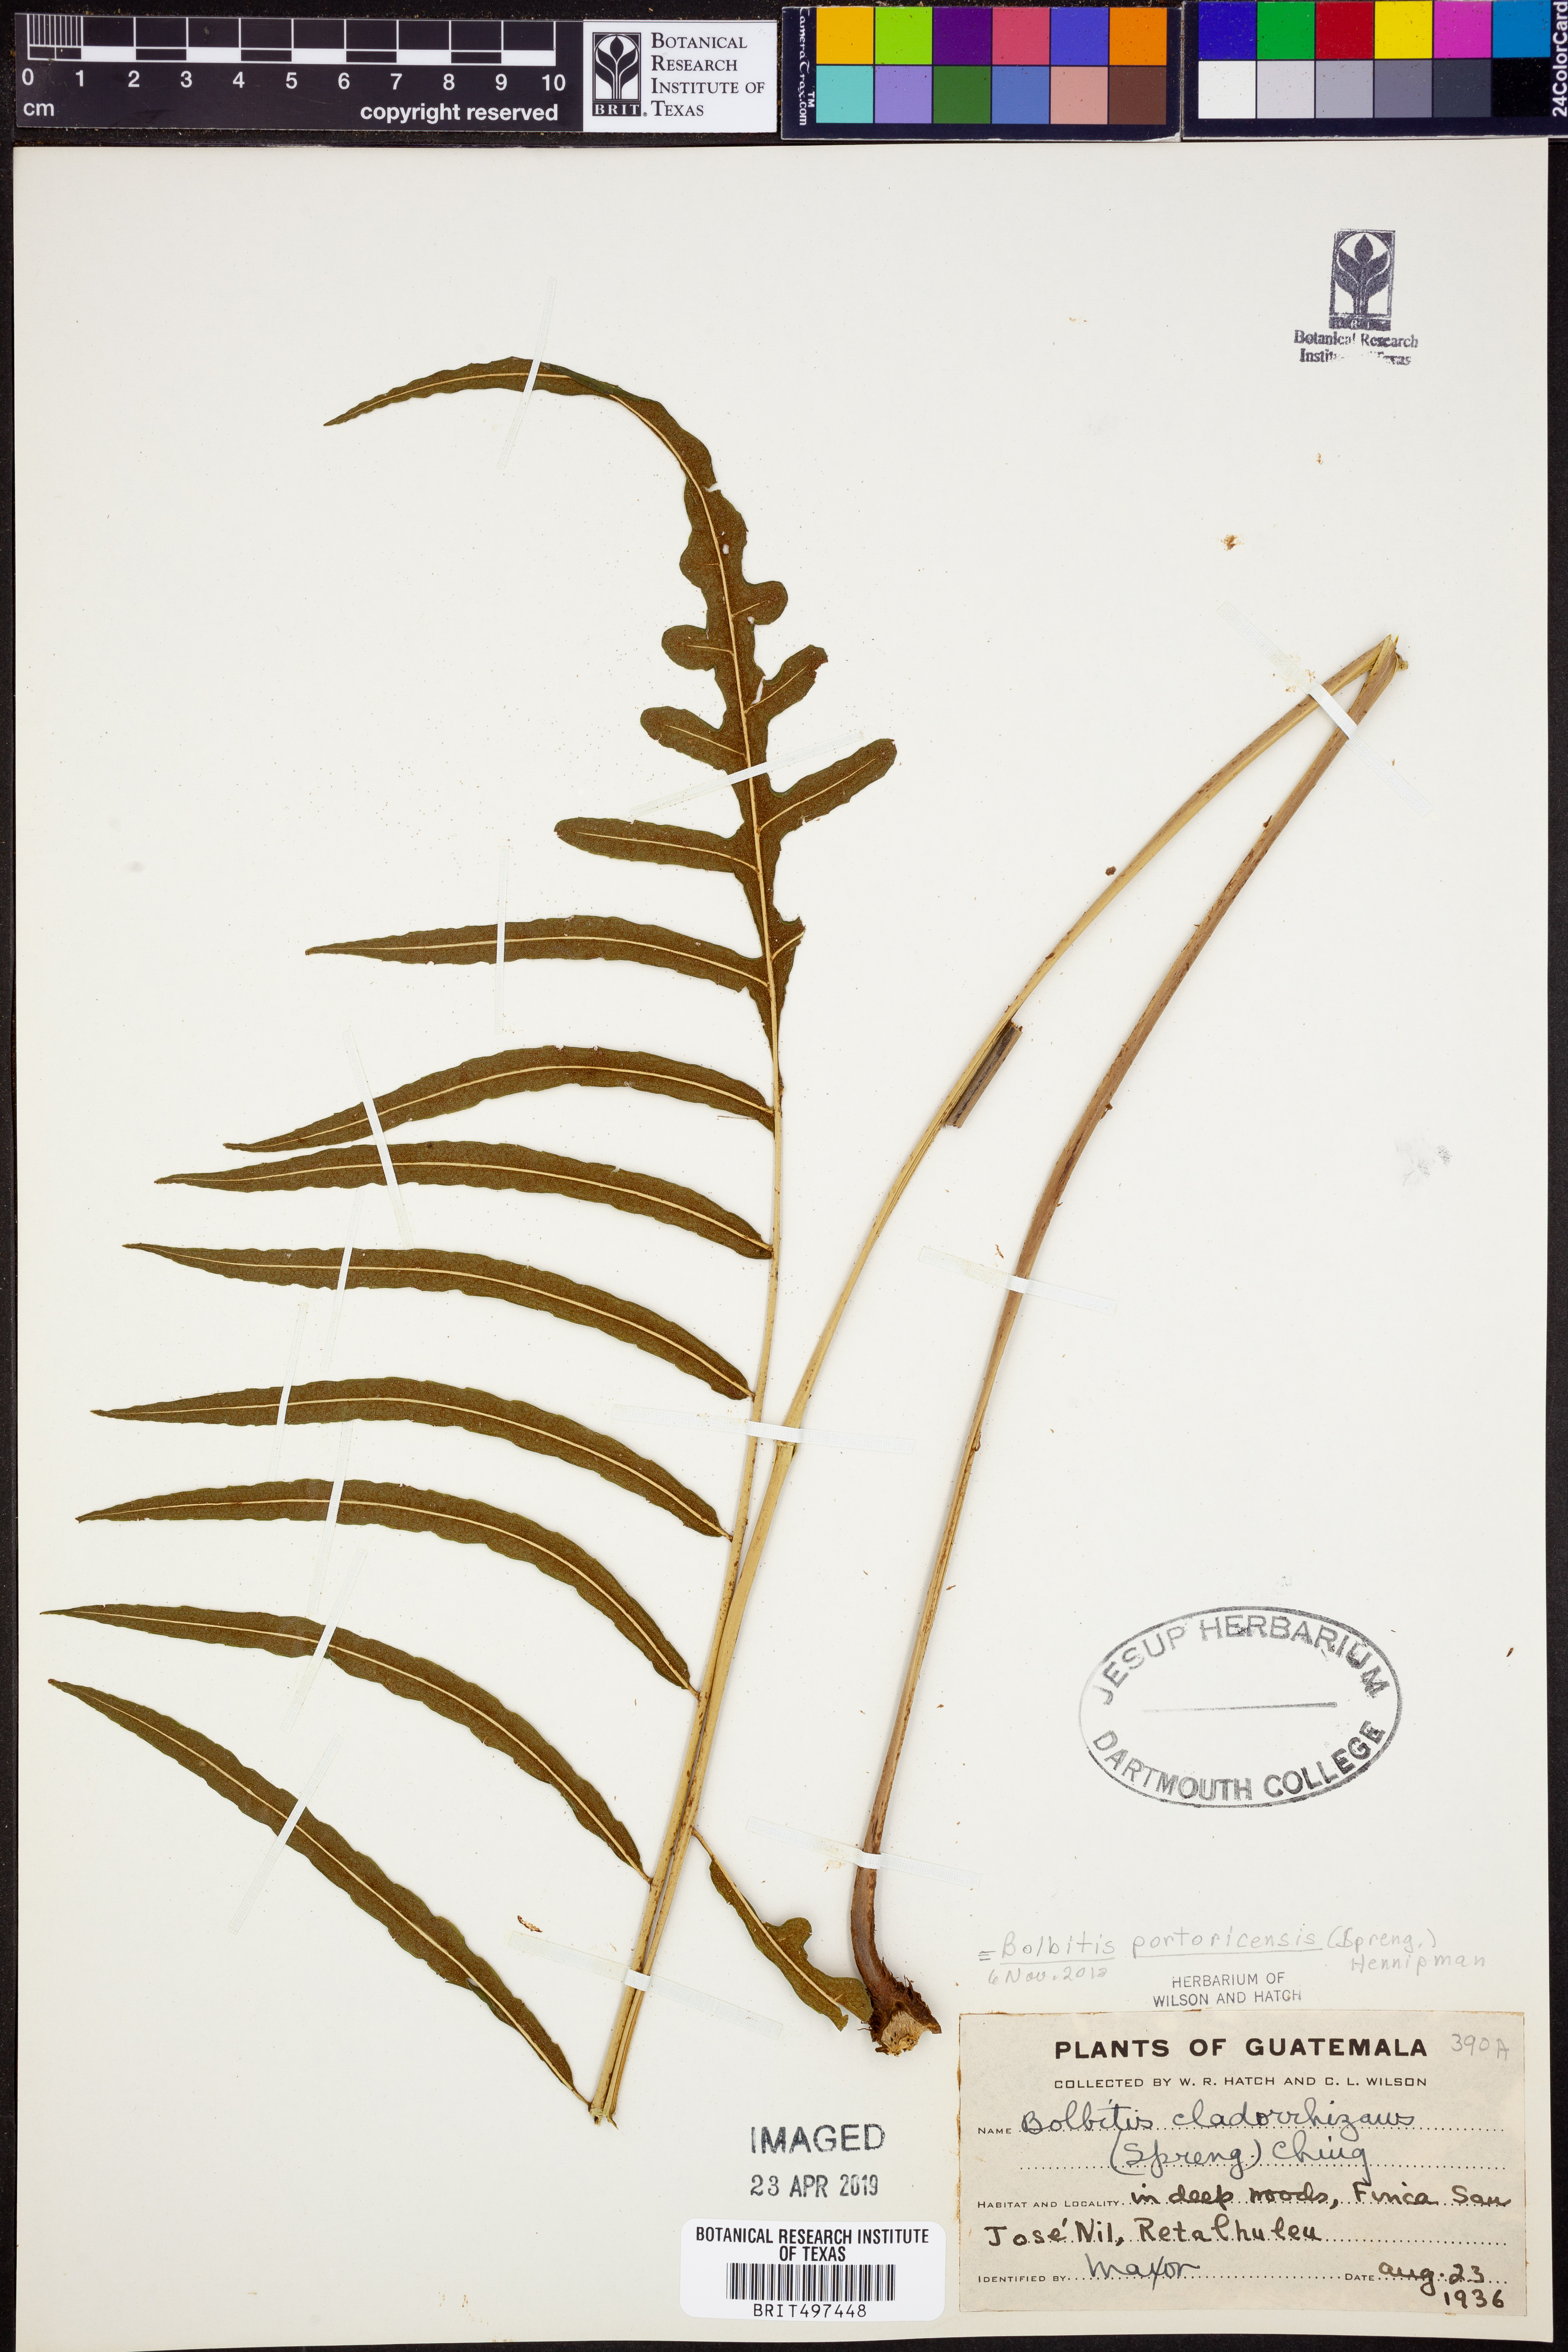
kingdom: Plantae
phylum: Tracheophyta
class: Polypodiopsida
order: Polypodiales
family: Dryopteridaceae
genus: Bolbitis
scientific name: Bolbitis portoricensis
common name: Puerto rico creepingfer
